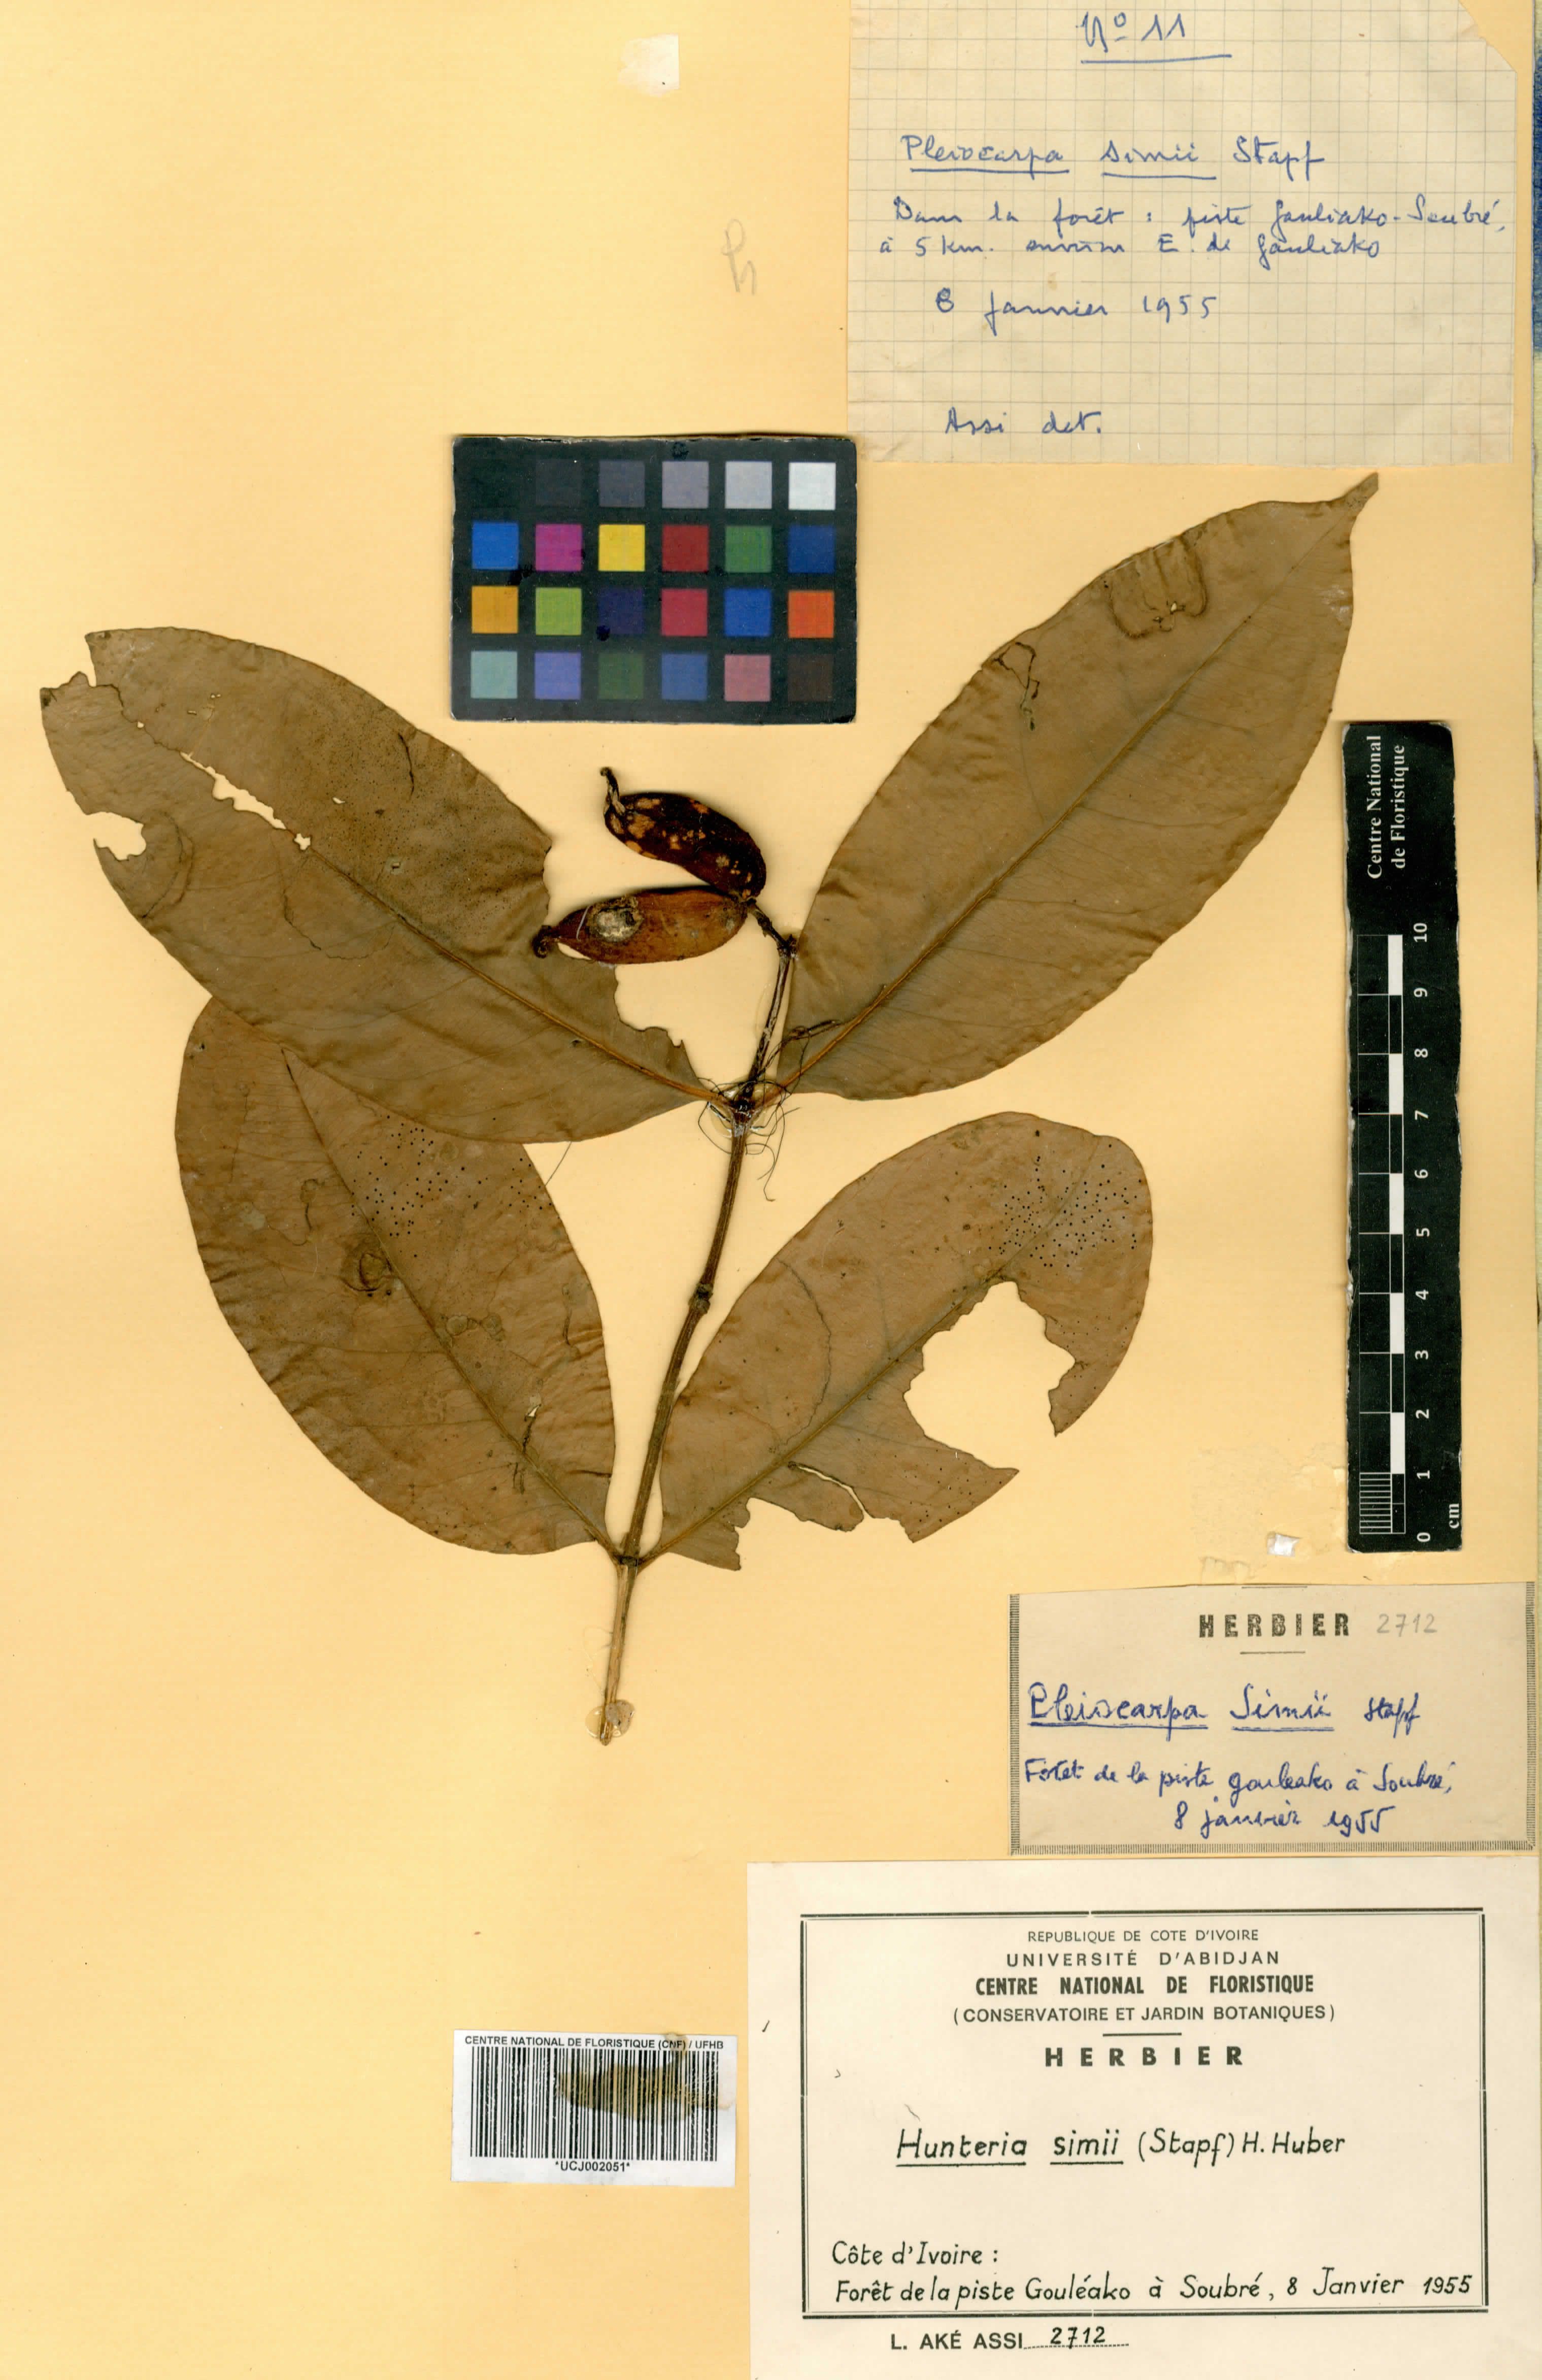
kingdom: Plantae
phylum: Tracheophyta
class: Magnoliopsida
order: Gentianales
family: Apocynaceae
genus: Hunteria
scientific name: Hunteria simii
